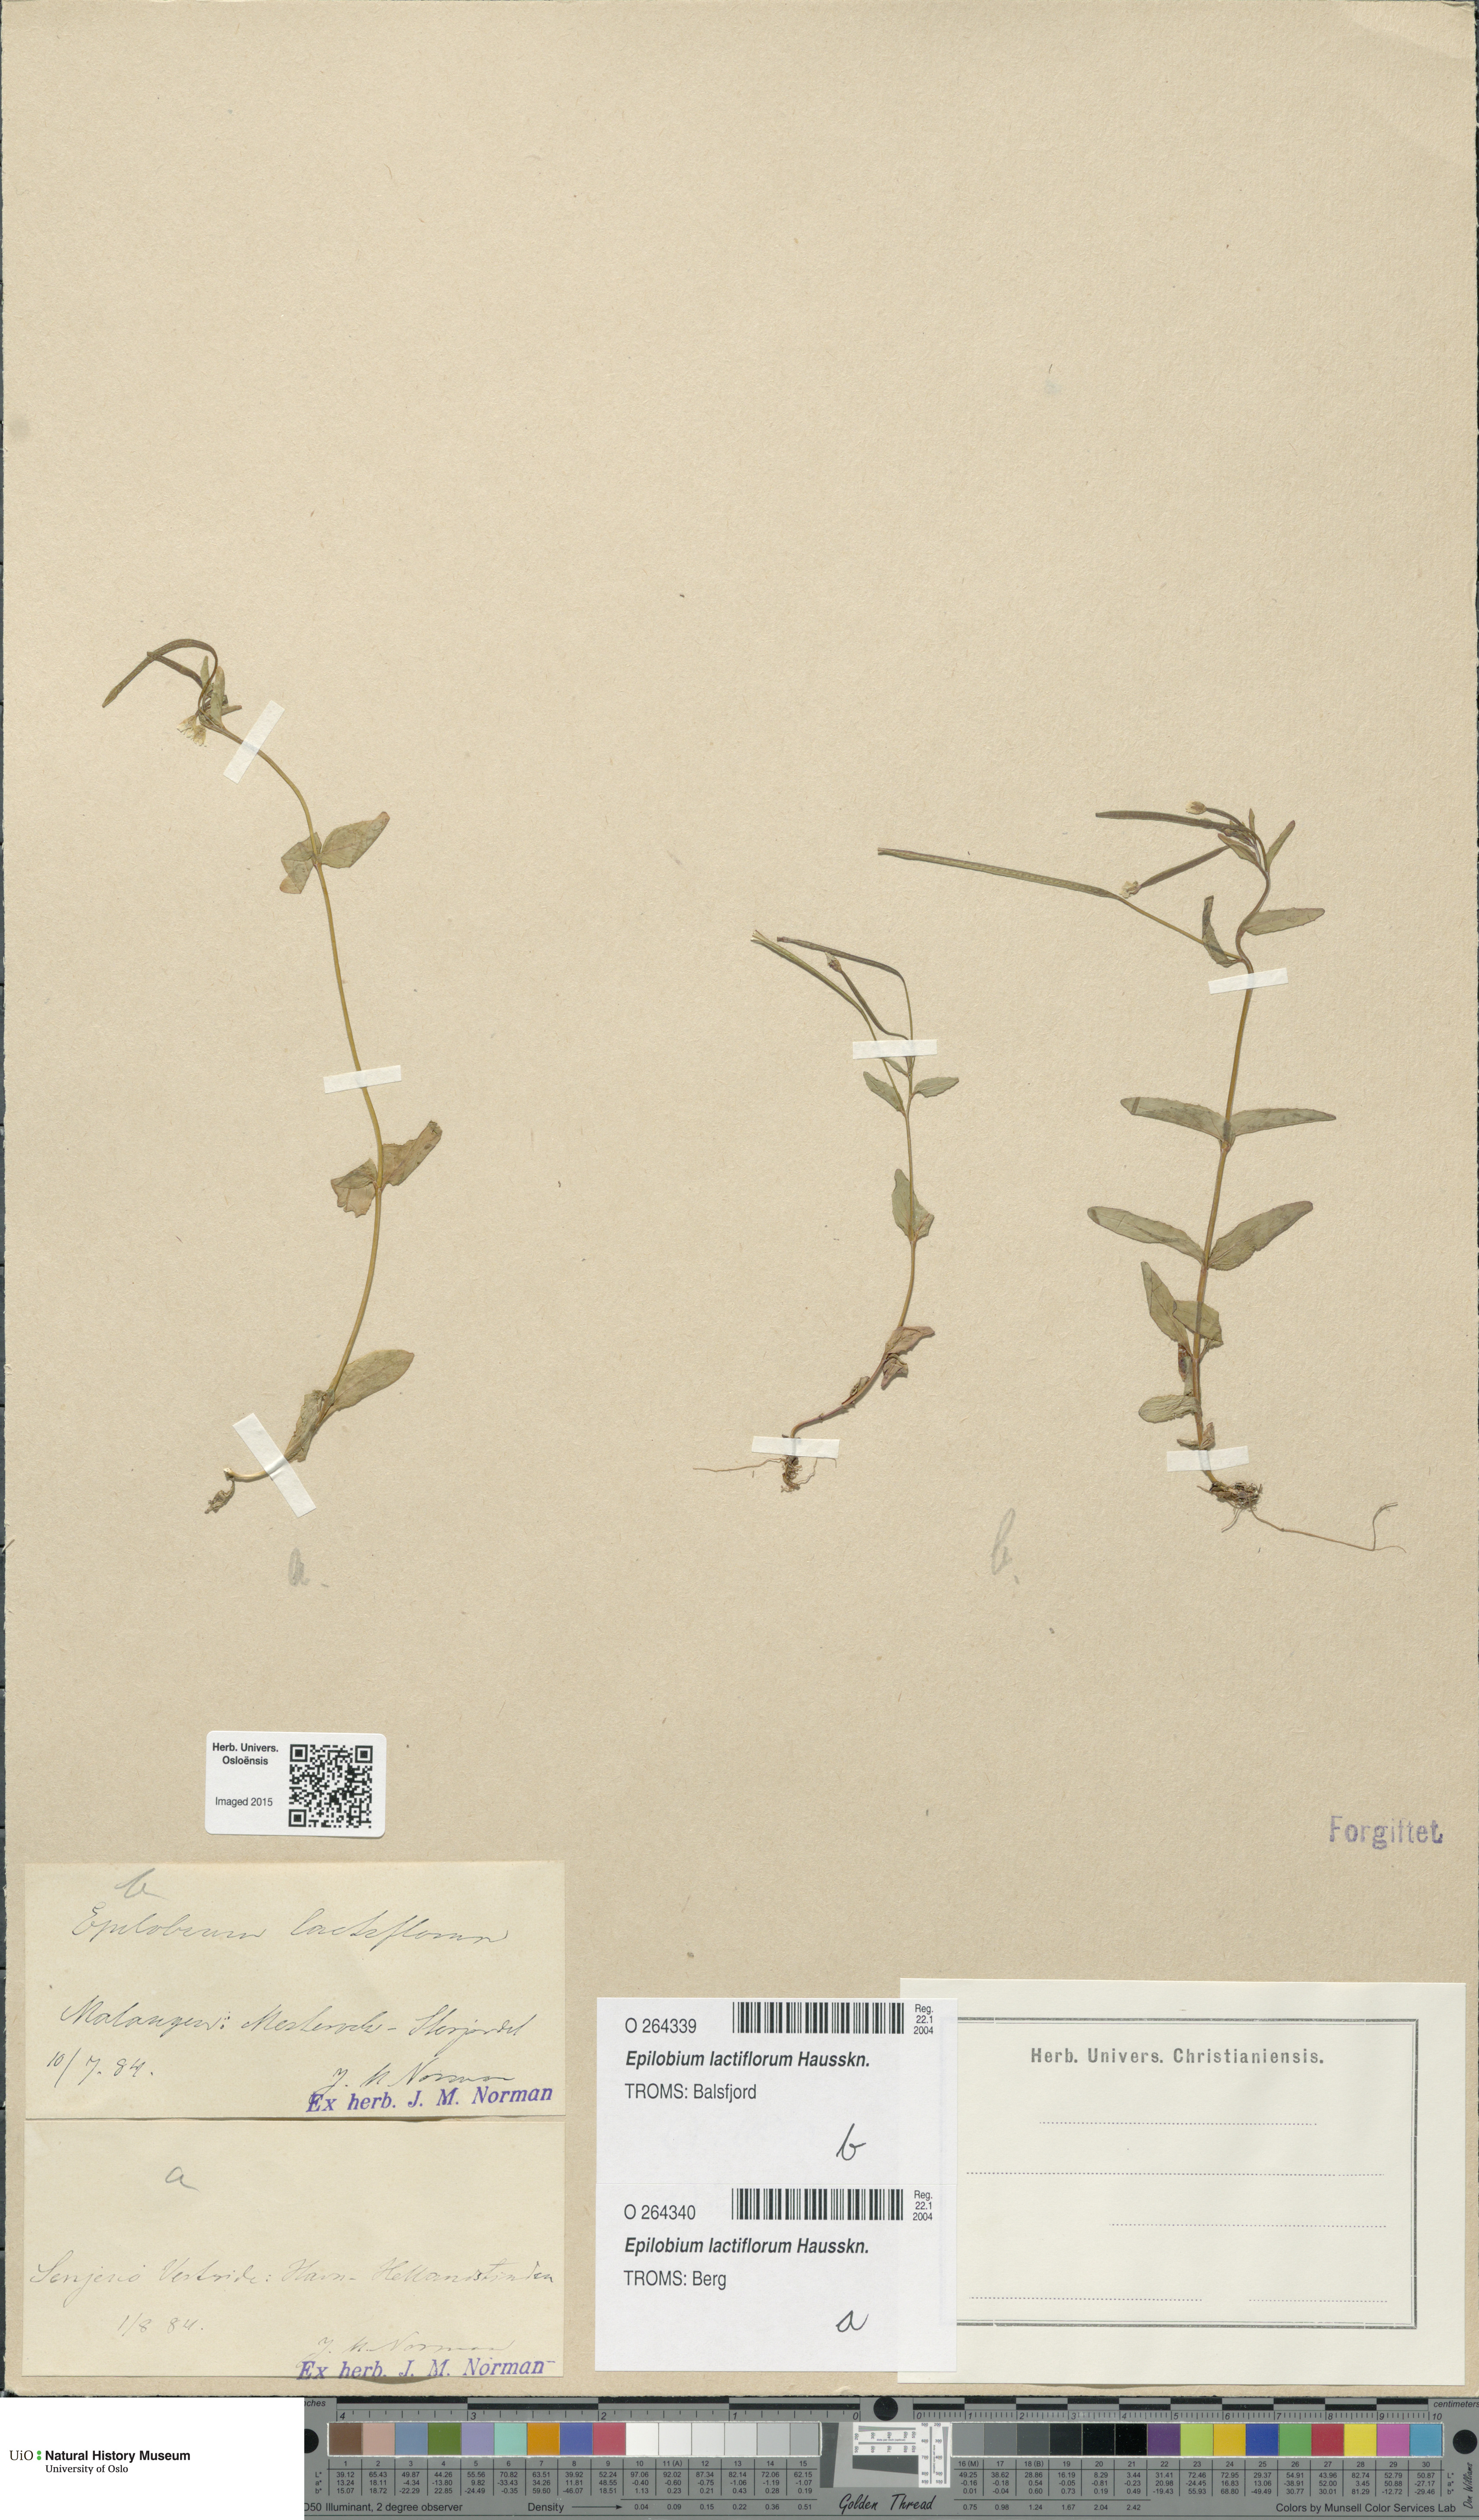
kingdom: Plantae
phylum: Tracheophyta
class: Magnoliopsida
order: Myrtales
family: Onagraceae
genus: Epilobium
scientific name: Epilobium lactiflorum
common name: Milkflower willowherb
